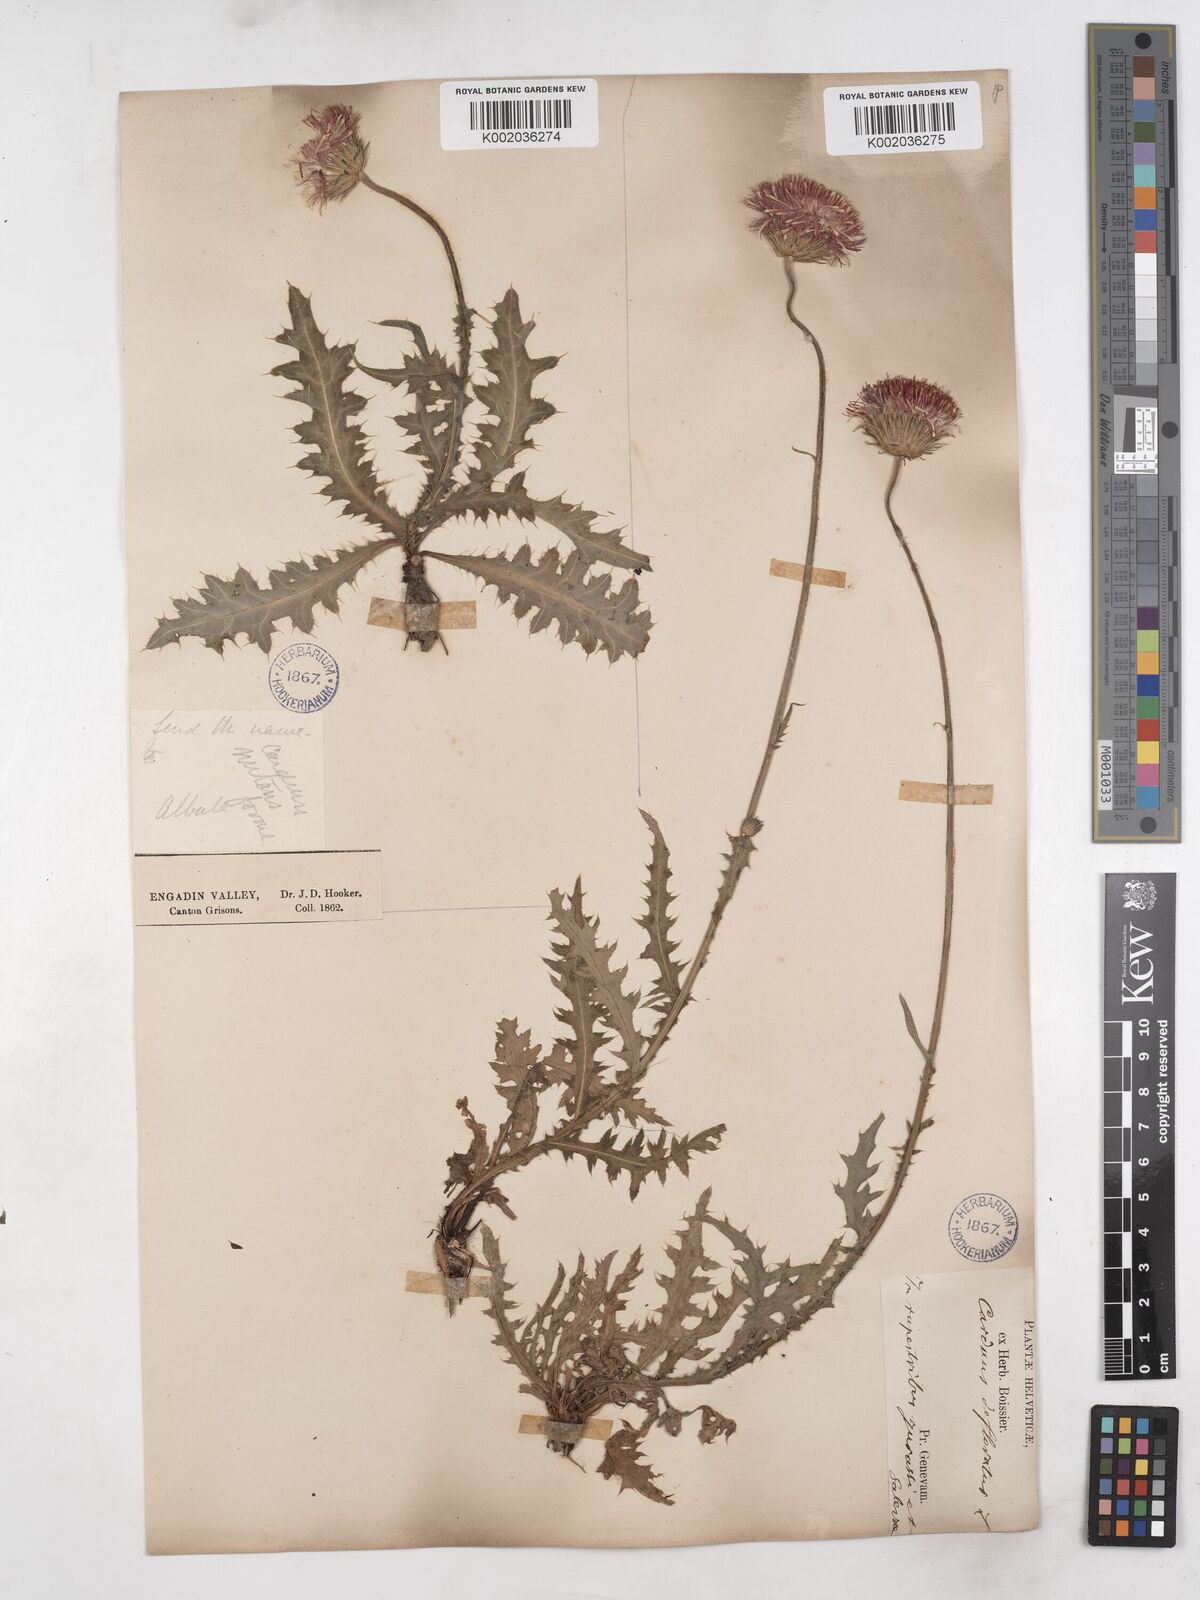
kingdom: Plantae
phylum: Tracheophyta
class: Magnoliopsida
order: Asterales
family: Asteraceae
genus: Carduus
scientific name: Carduus defloratus
